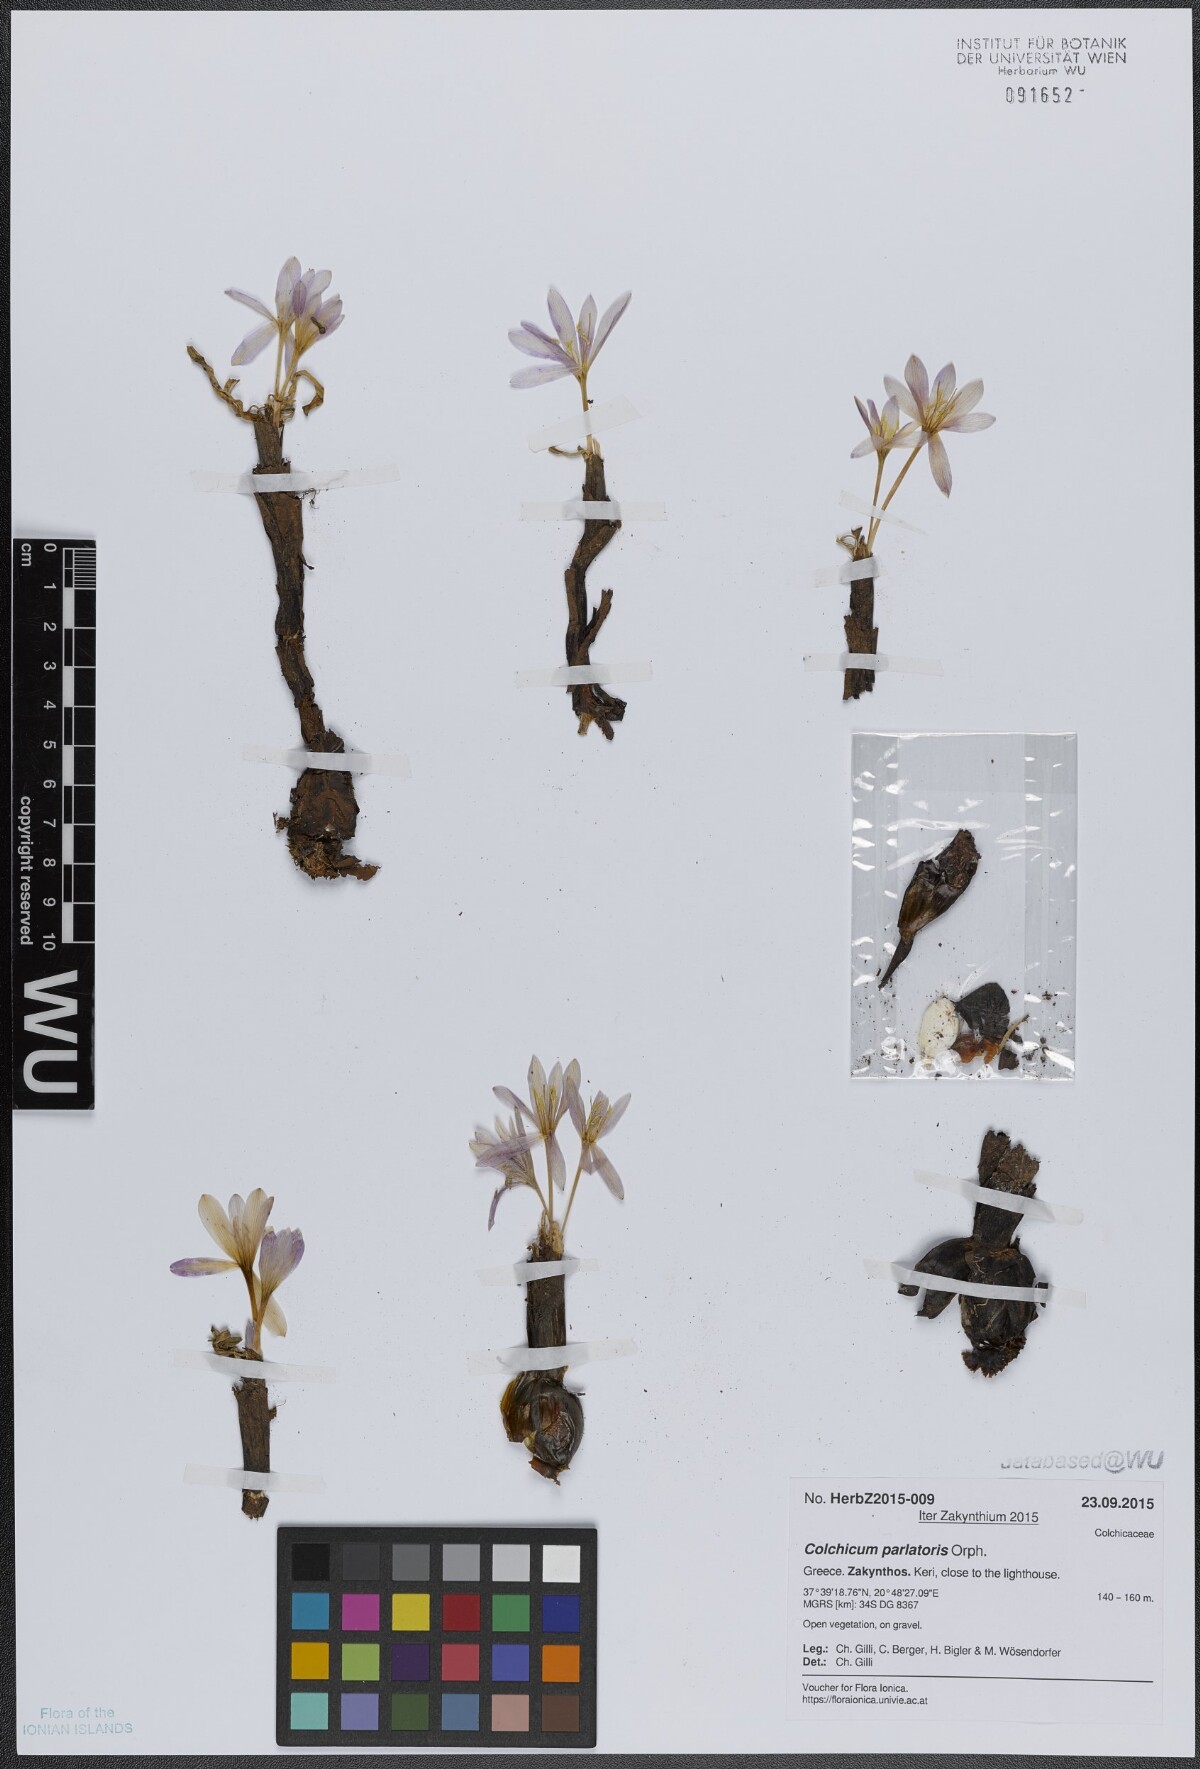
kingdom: Plantae
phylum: Tracheophyta
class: Liliopsida
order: Liliales
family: Colchicaceae
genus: Colchicum
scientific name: Colchicum parlatoris
